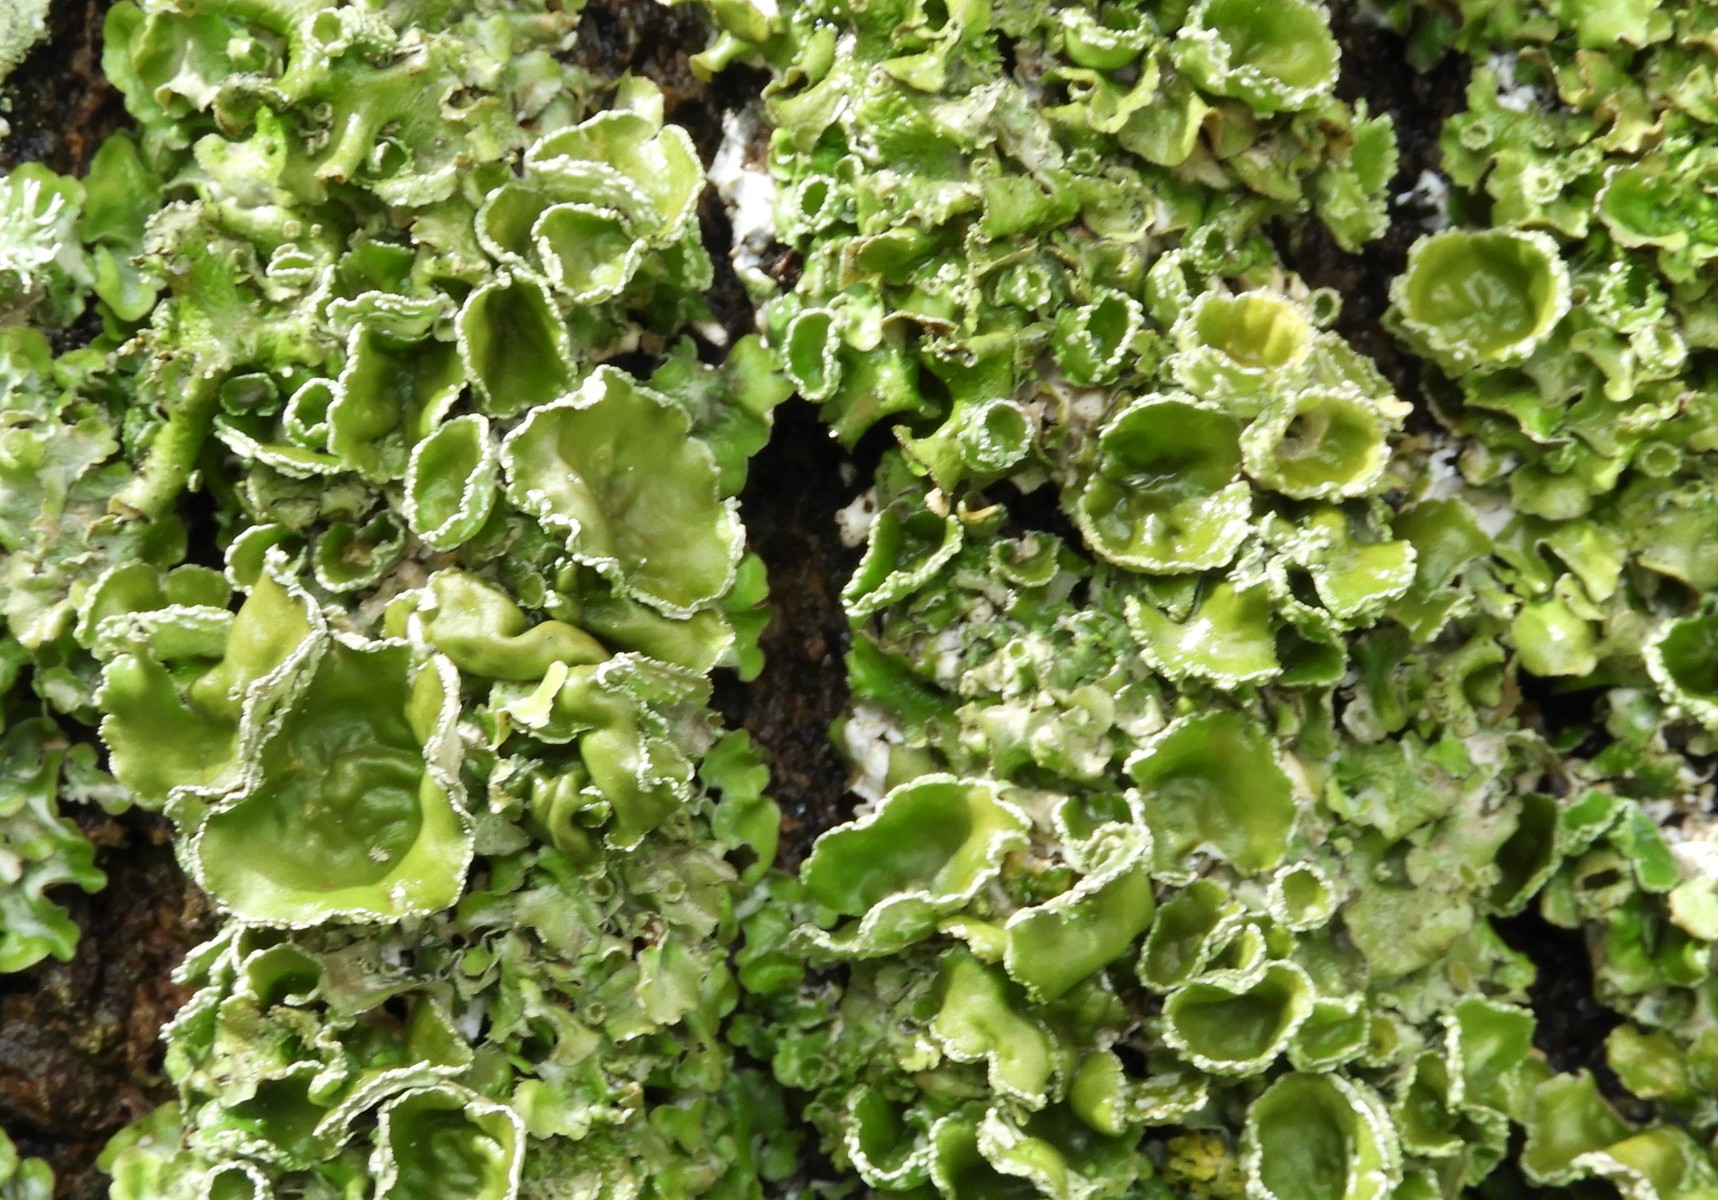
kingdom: Fungi
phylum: Ascomycota
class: Lecanoromycetes
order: Lecanorales
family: Parmeliaceae
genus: Pleurosticta
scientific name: Pleurosticta acetabulum
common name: stor skållav
